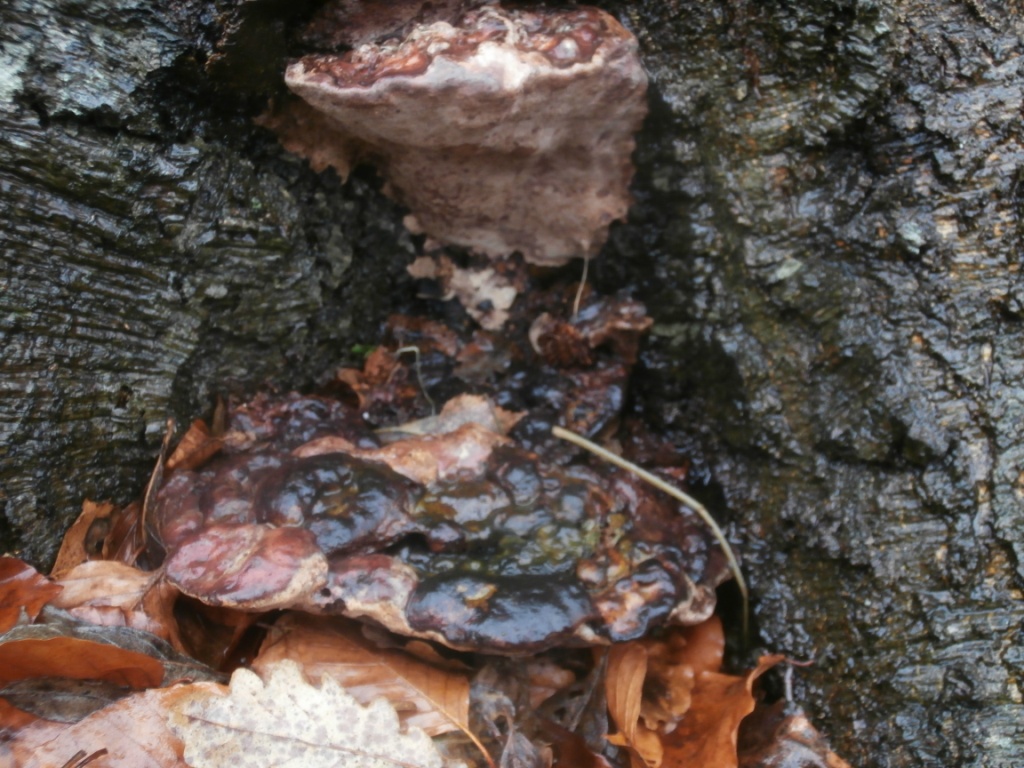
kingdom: Fungi
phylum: Basidiomycota
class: Agaricomycetes
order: Polyporales
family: Polyporaceae
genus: Vanderbylia
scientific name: Vanderbylia fraxinea
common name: stor kanelporesvamp
